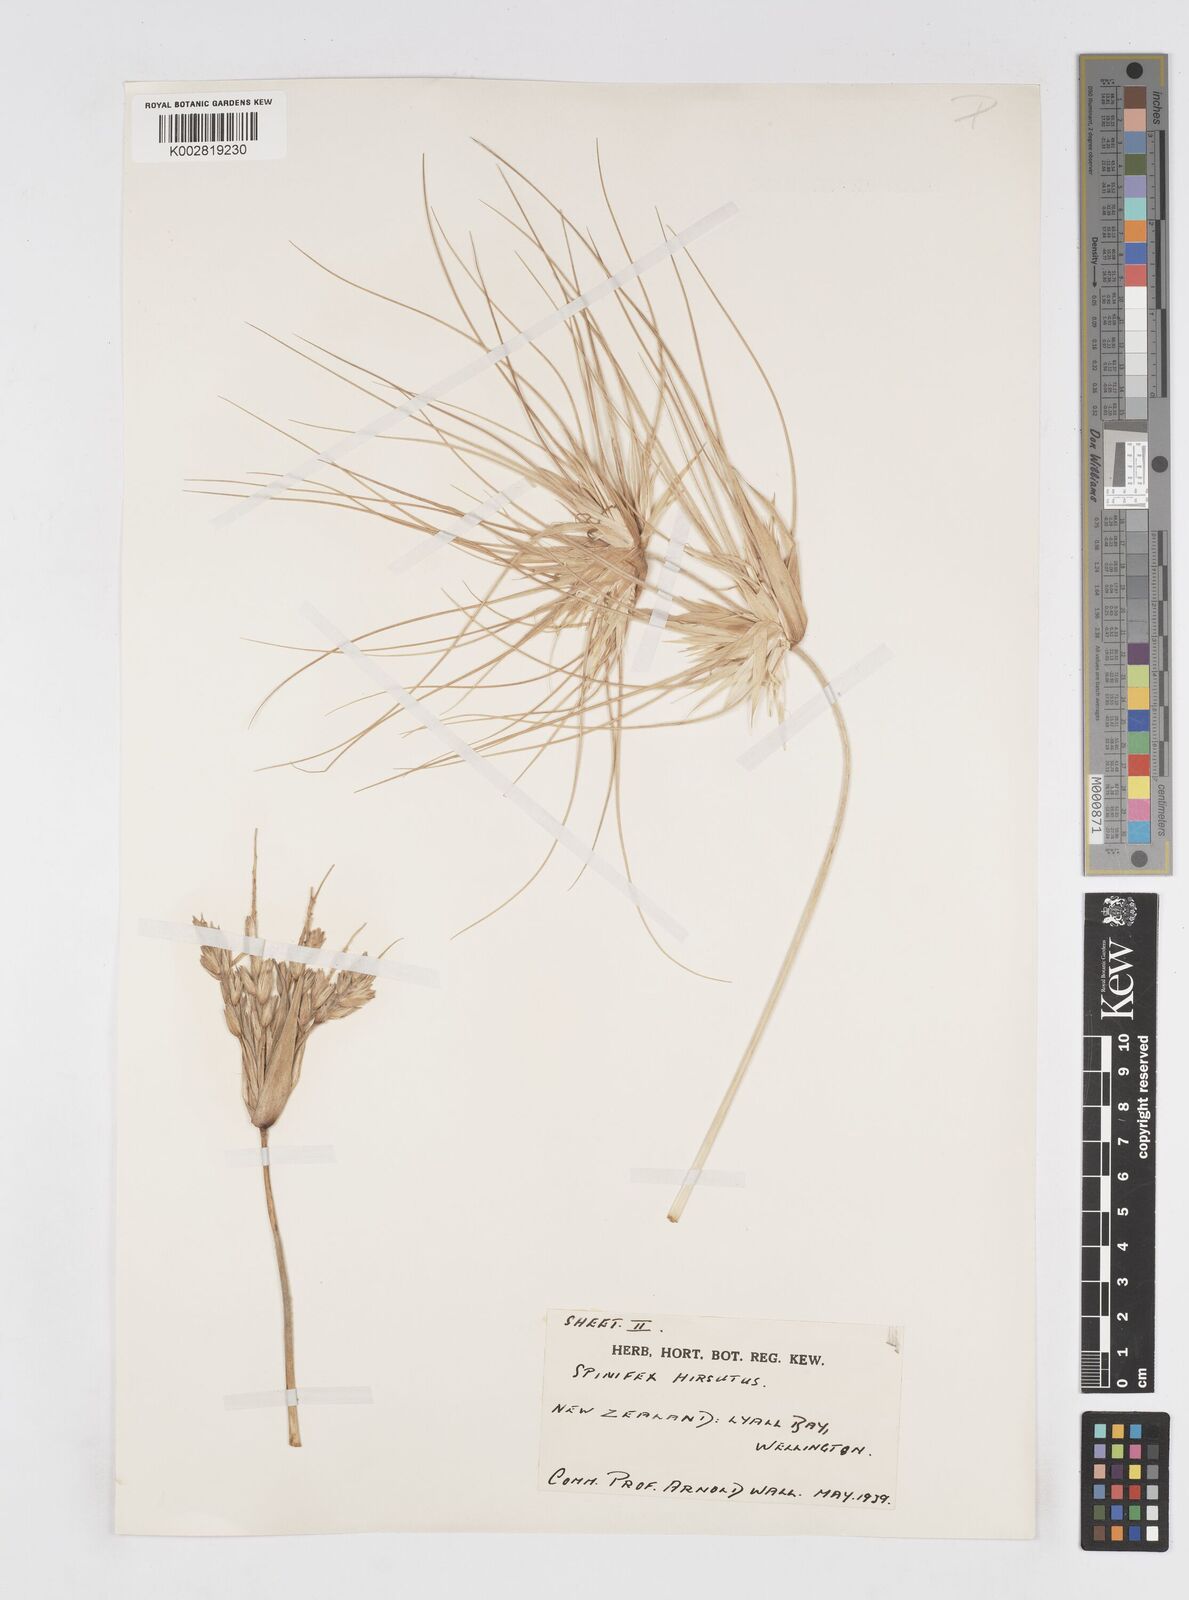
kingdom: Plantae
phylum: Tracheophyta
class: Liliopsida
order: Poales
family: Poaceae
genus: Spinifex
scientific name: Spinifex sericeus
